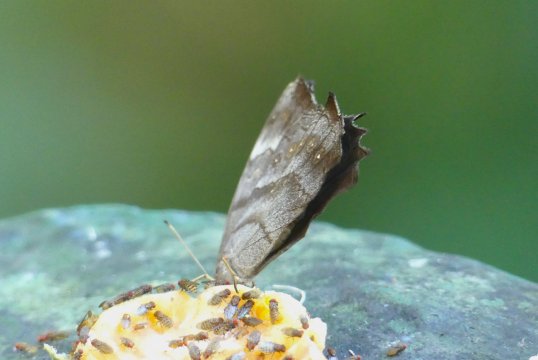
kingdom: Animalia
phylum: Arthropoda
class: Insecta
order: Lepidoptera
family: Nymphalidae
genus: Taygetis
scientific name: Taygetis celia
